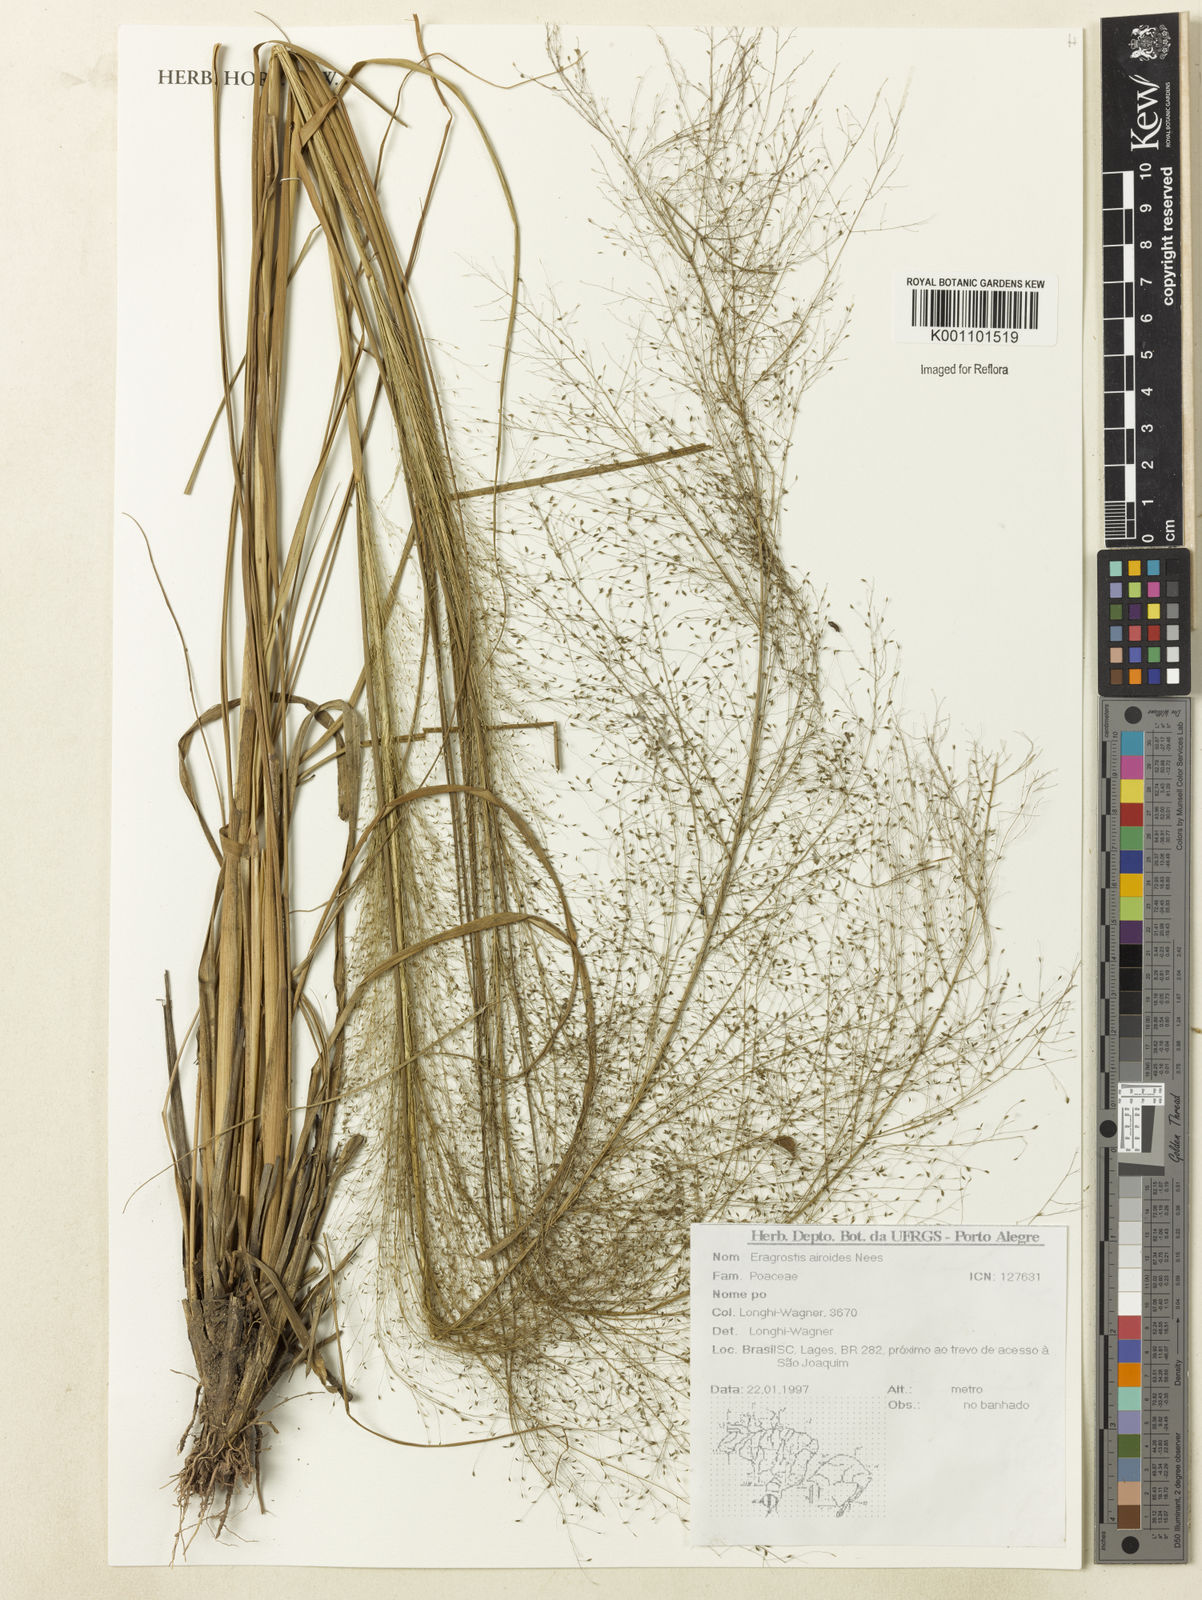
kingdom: Plantae
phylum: Tracheophyta
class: Liliopsida
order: Poales
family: Poaceae
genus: Eragrostis
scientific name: Eragrostis airoides
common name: Darnel lovegrass
